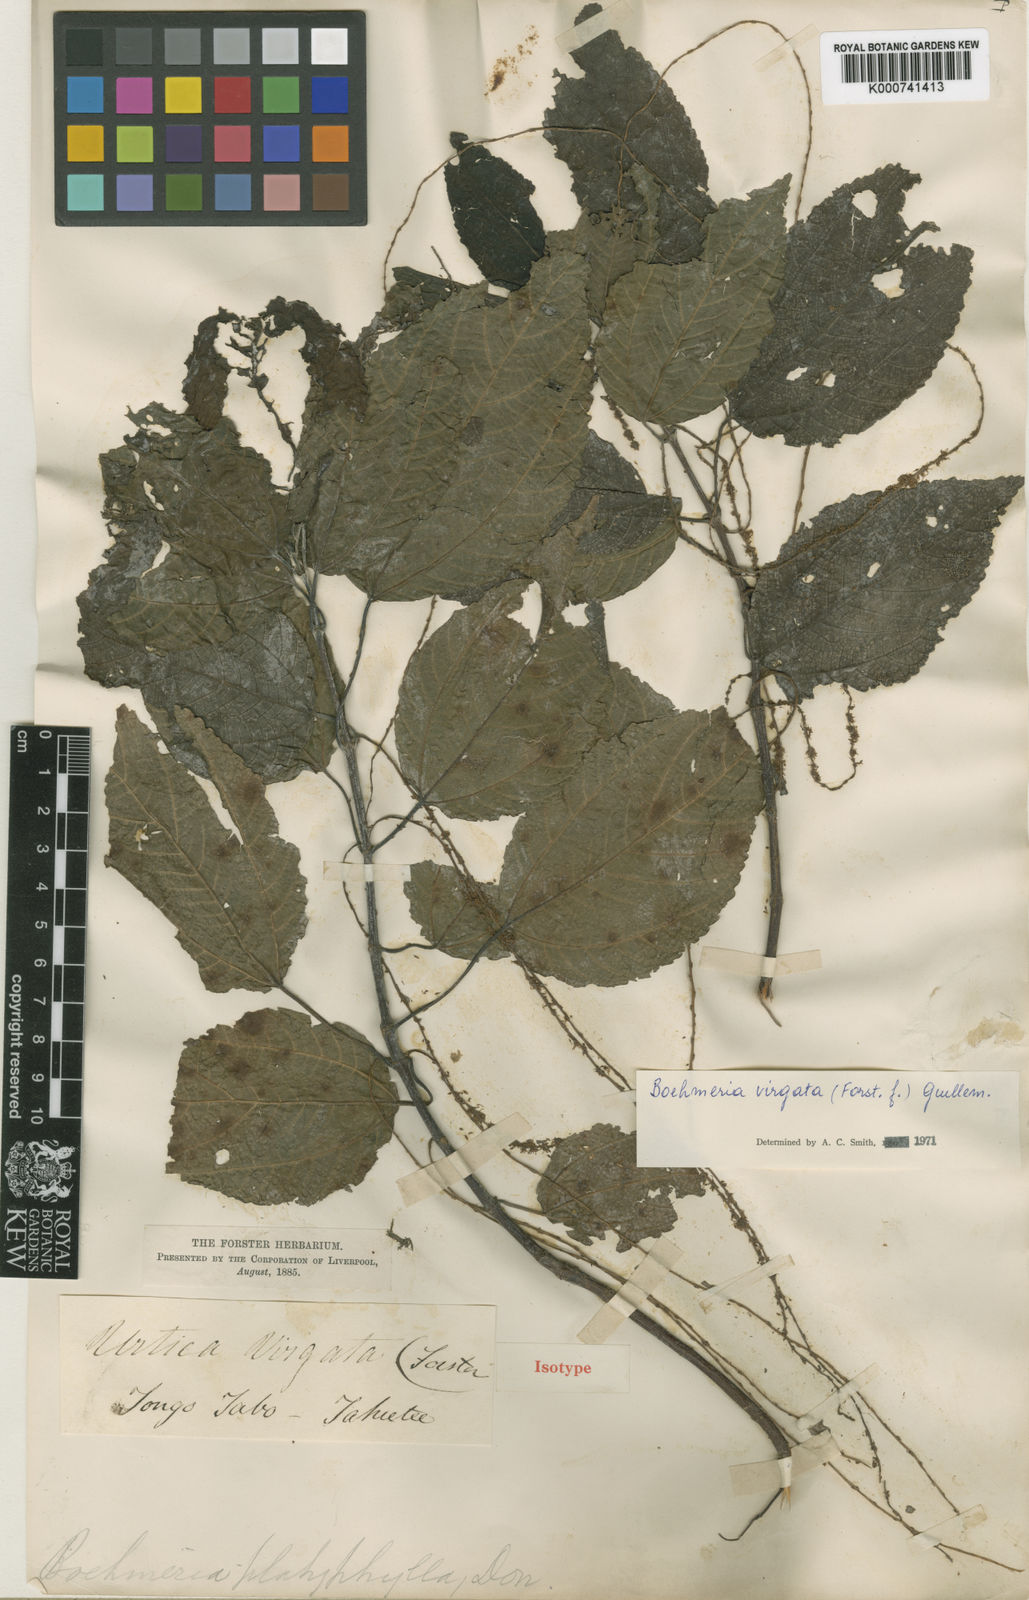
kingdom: Plantae
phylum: Tracheophyta
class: Magnoliopsida
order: Rosales
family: Urticaceae
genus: Boehmeria
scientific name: Boehmeria virgata
